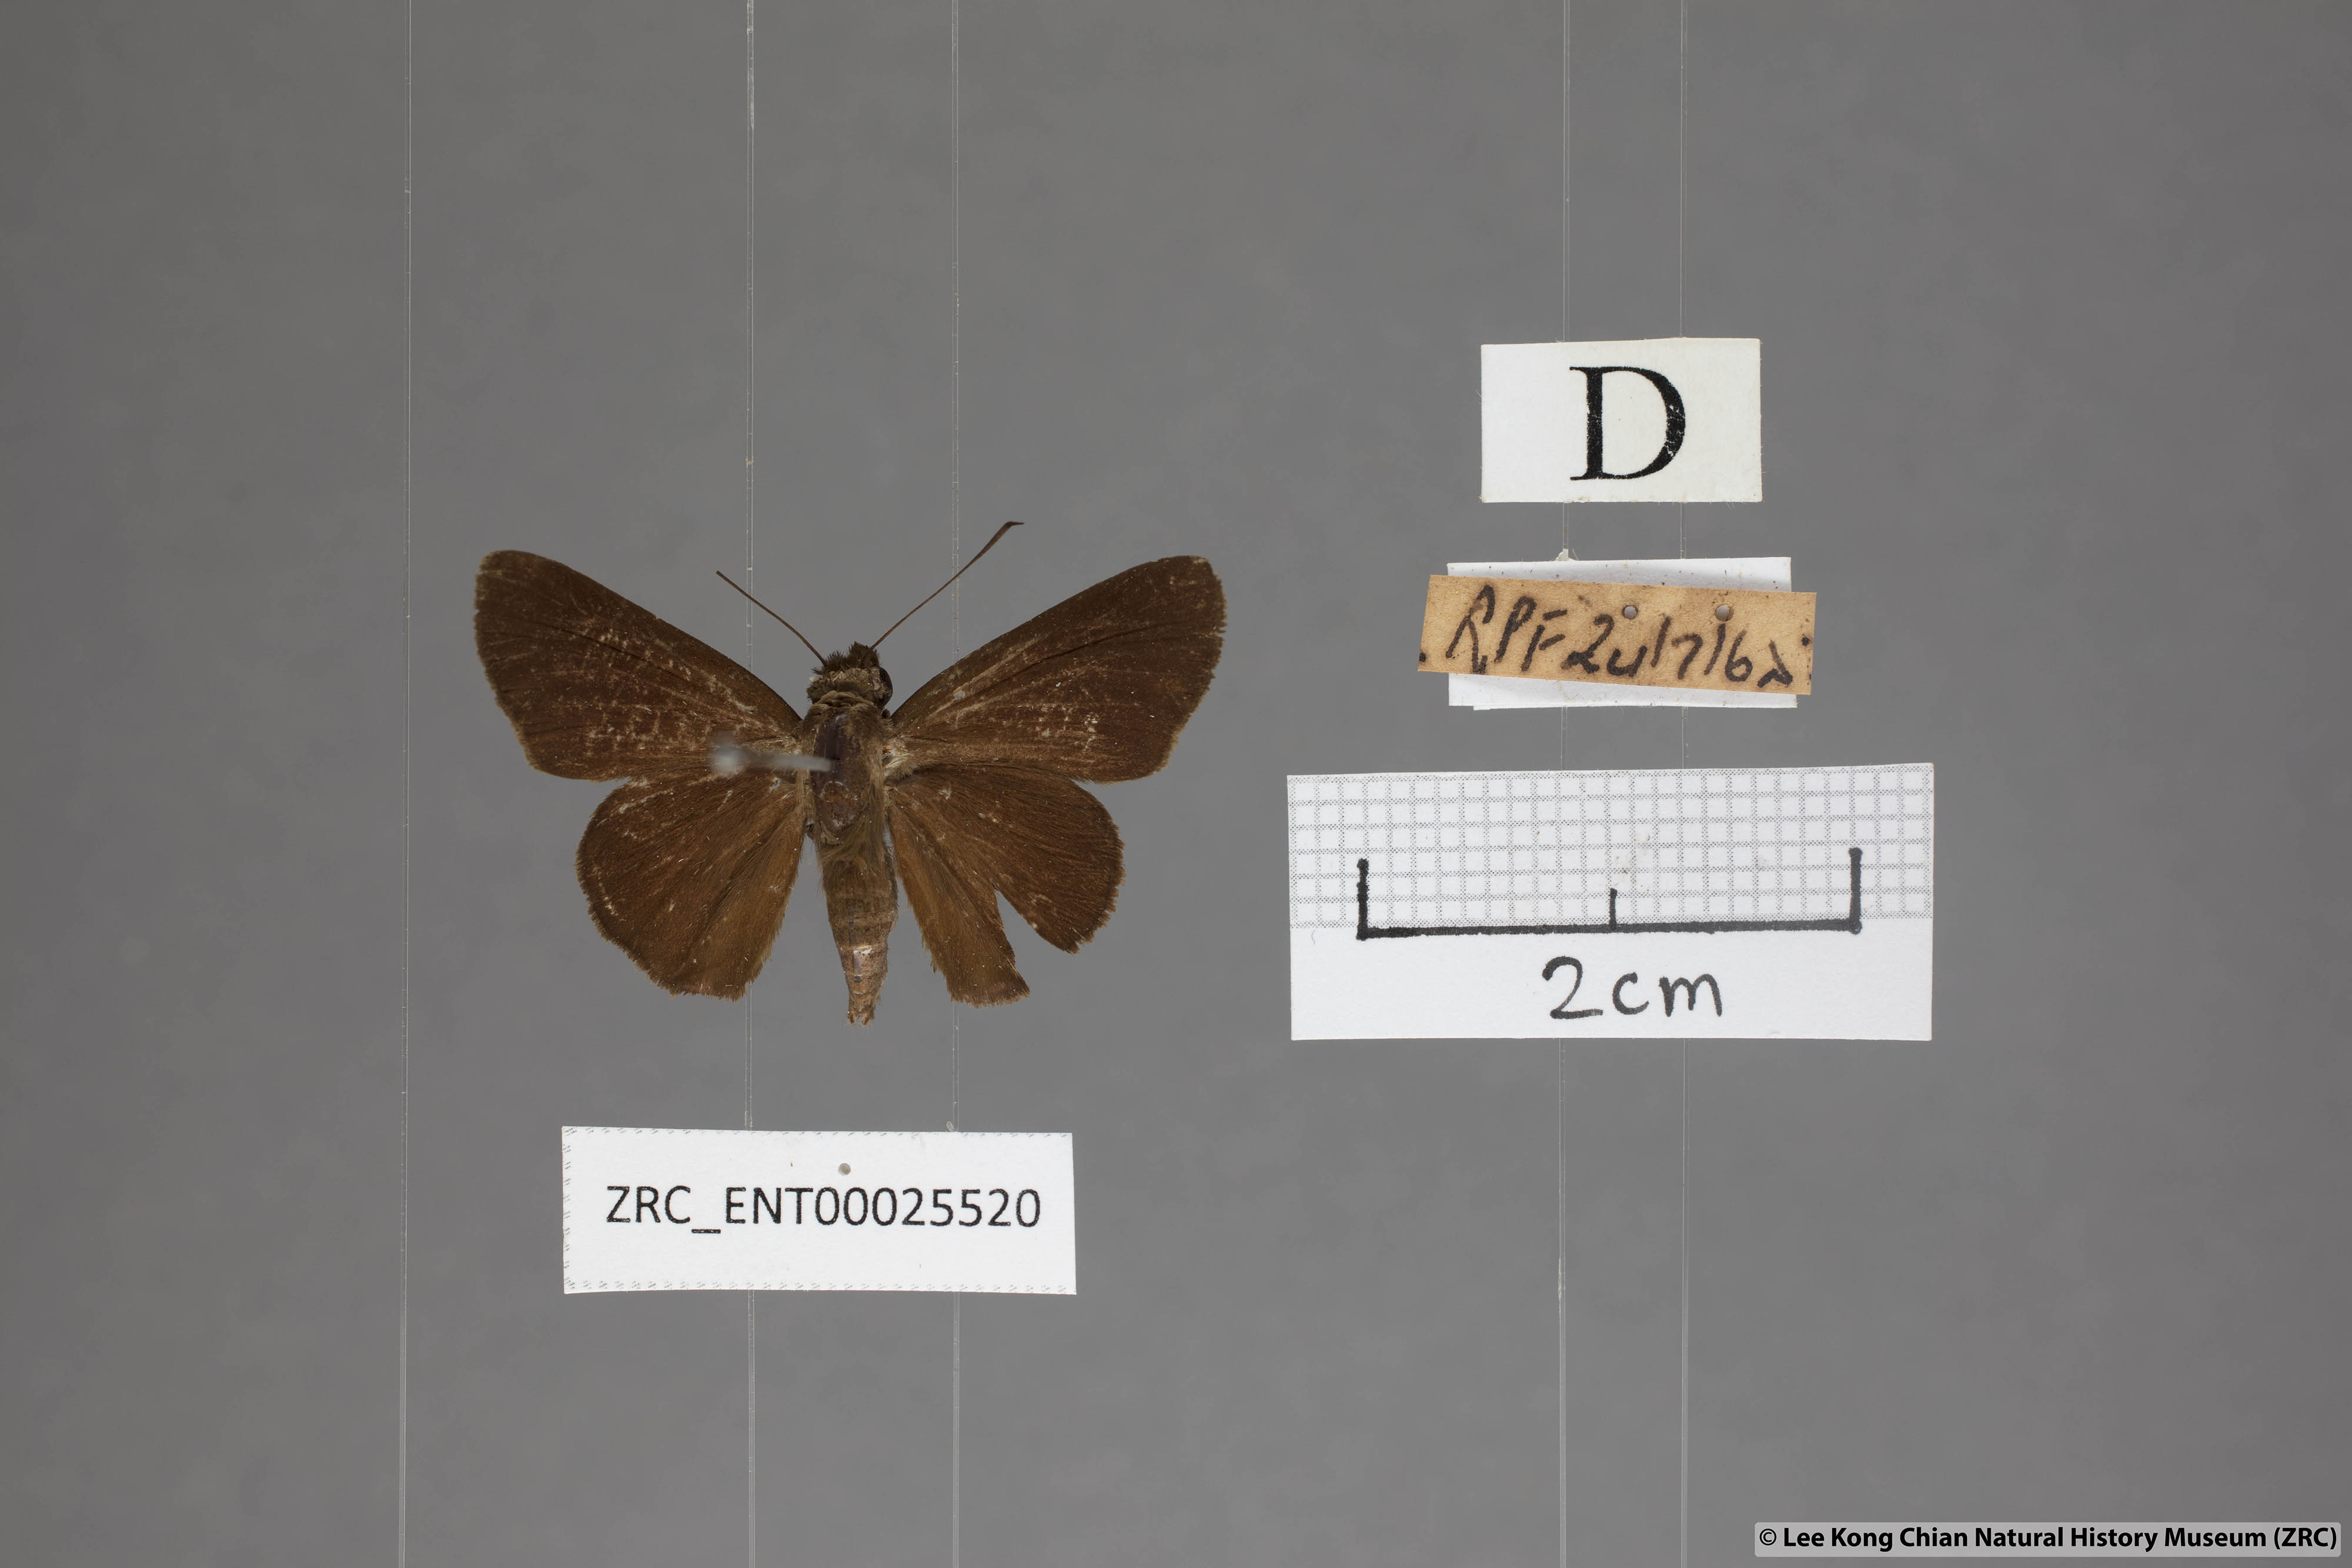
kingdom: Animalia
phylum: Arthropoda
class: Insecta
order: Lepidoptera
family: Hesperiidae
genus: Quedara
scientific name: Quedara monteithi
